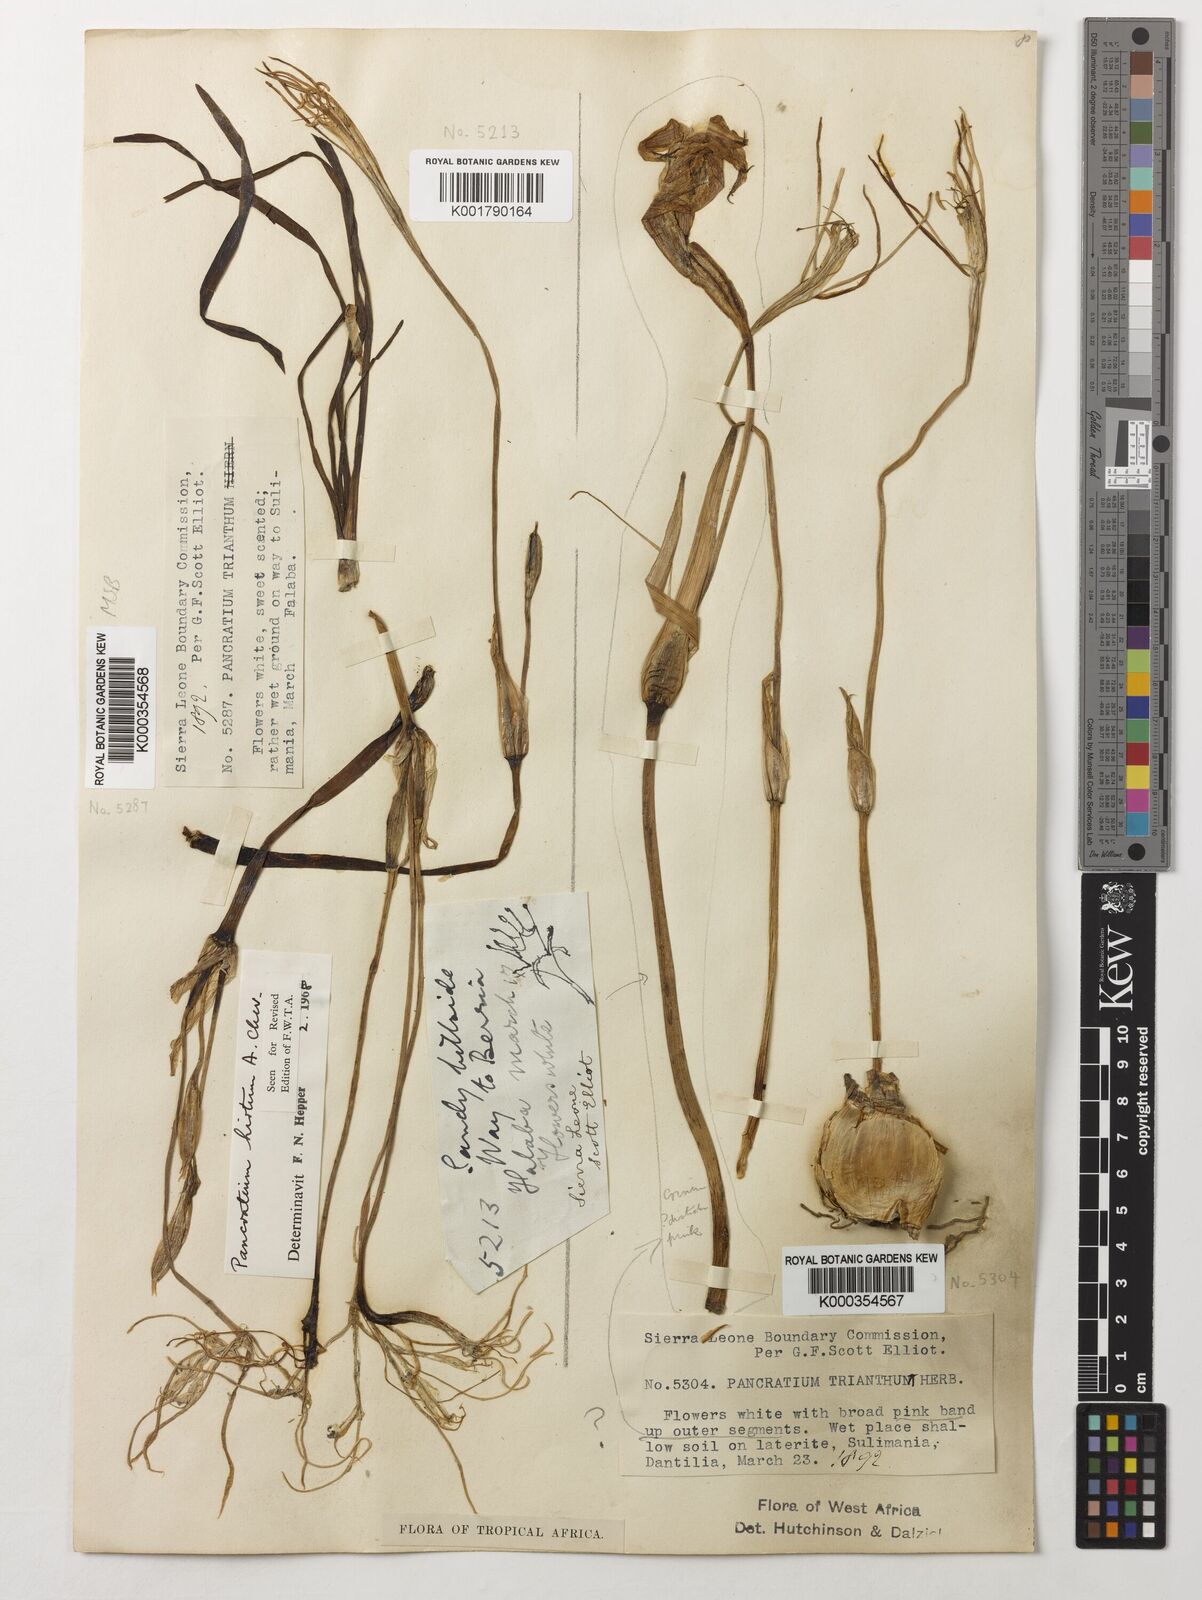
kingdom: Plantae
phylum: Tracheophyta
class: Liliopsida
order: Asparagales
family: Amaryllidaceae
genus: Pancratium
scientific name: Pancratium trianthum
